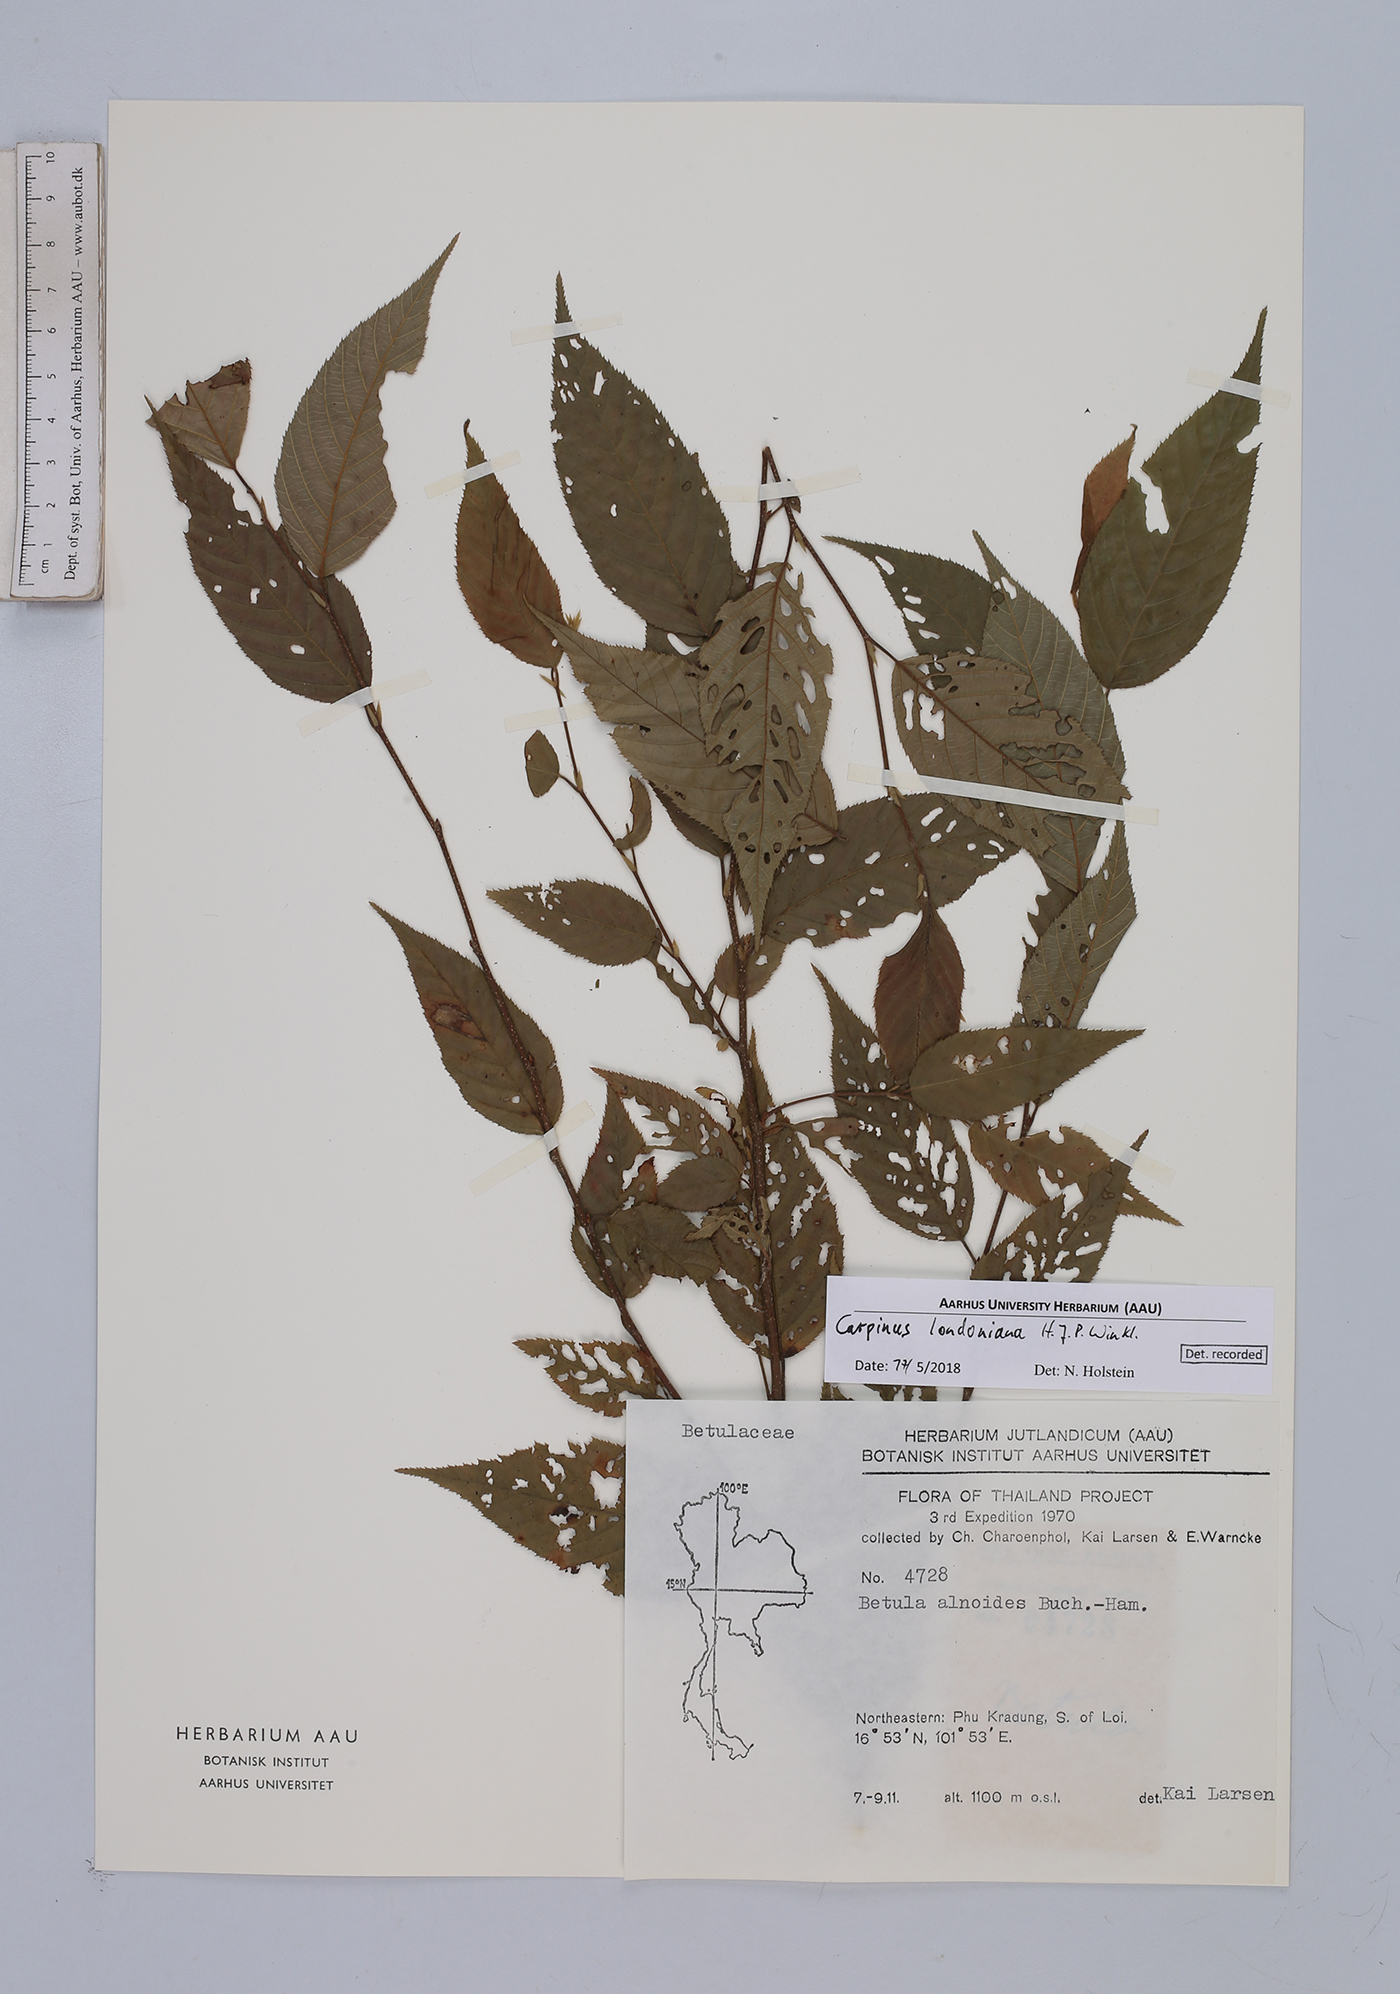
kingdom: Plantae
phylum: Tracheophyta
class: Magnoliopsida
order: Fagales
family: Betulaceae
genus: Carpinus
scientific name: Carpinus londoniana
